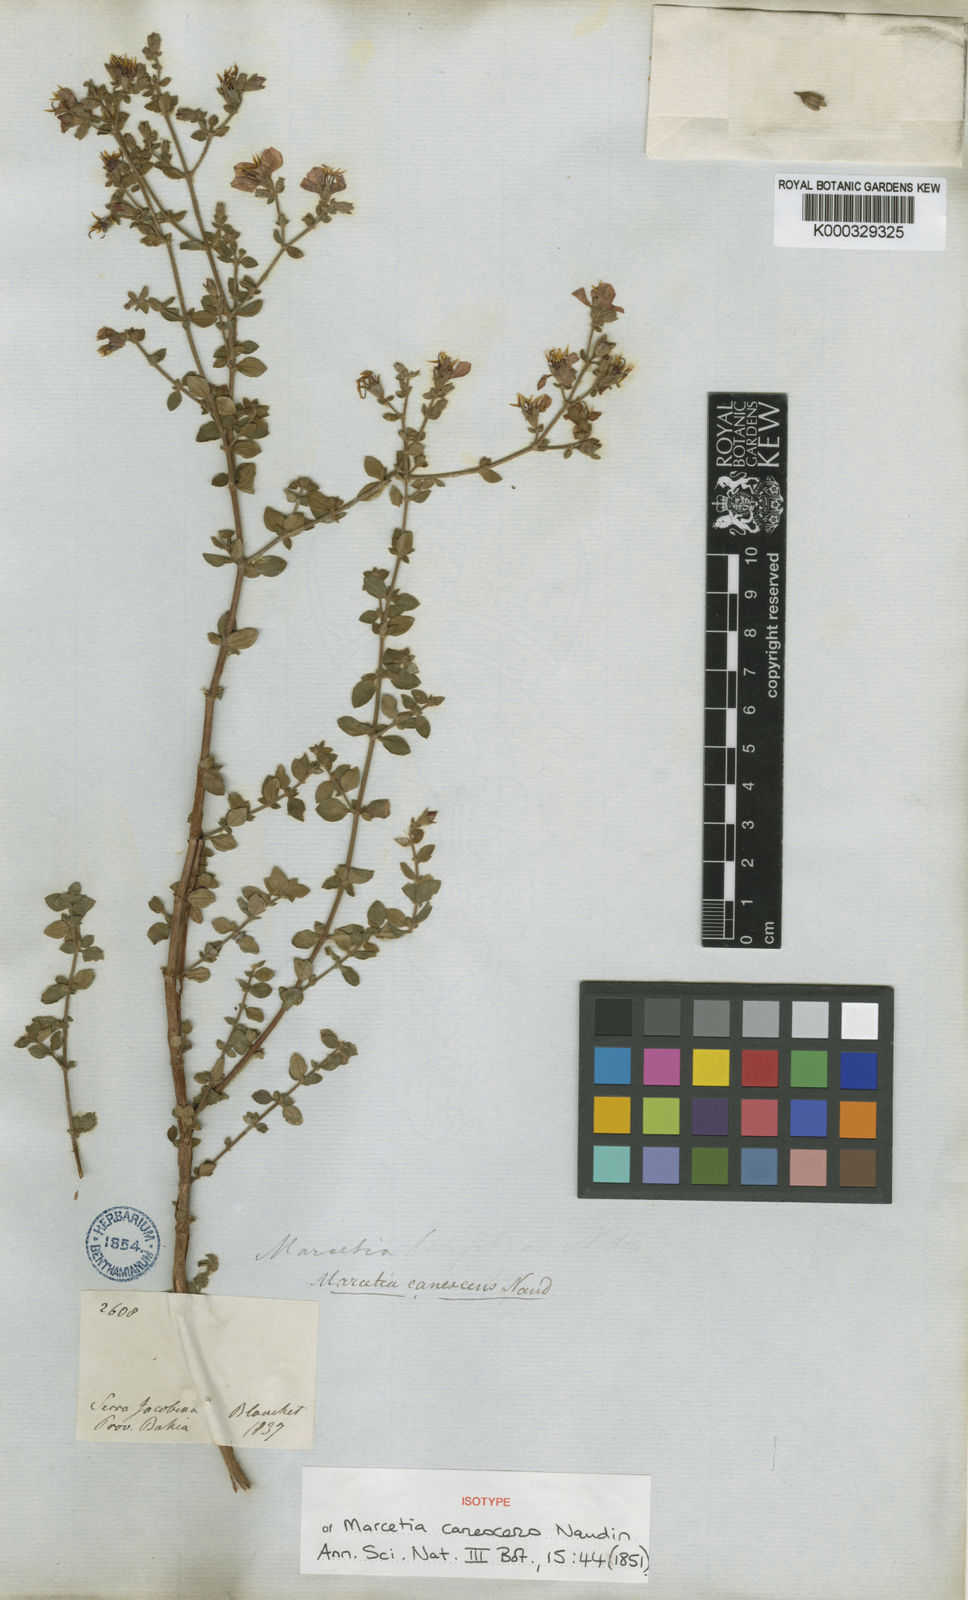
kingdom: Plantae
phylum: Tracheophyta
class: Magnoliopsida
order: Myrtales
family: Melastomataceae
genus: Marcetia
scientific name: Marcetia canescens
